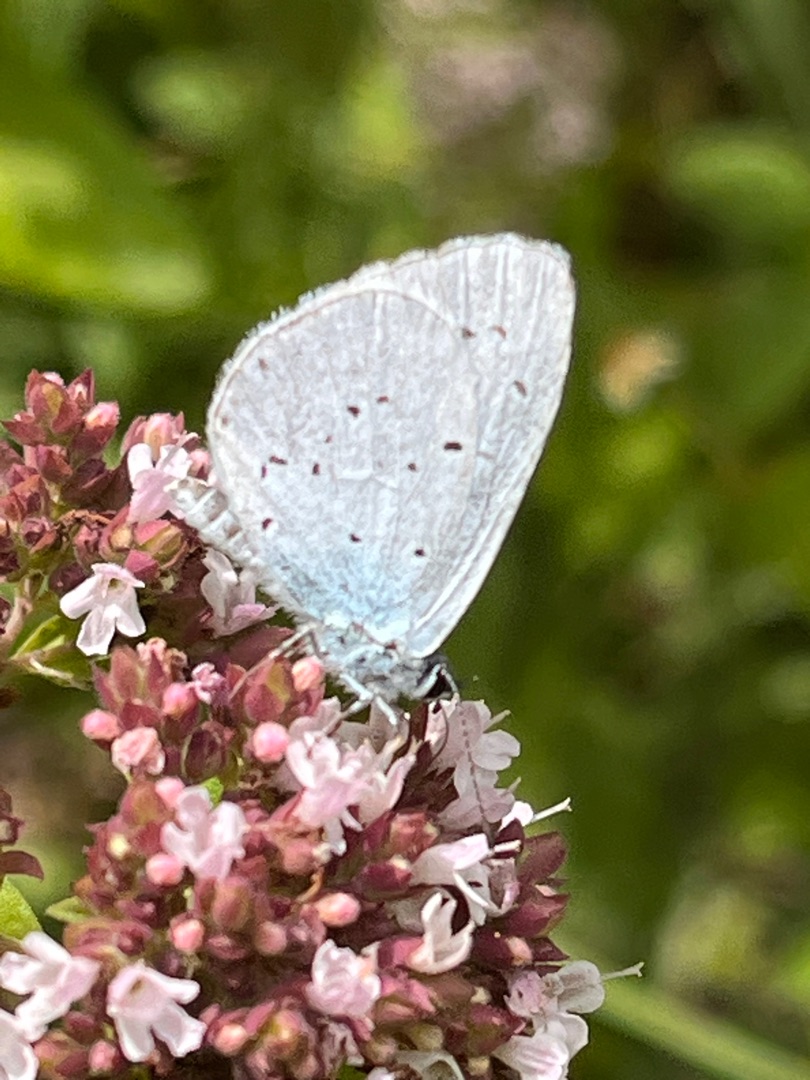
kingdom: Animalia
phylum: Arthropoda
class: Insecta
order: Lepidoptera
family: Lycaenidae
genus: Celastrina
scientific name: Celastrina argiolus
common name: Skovblåfugl
